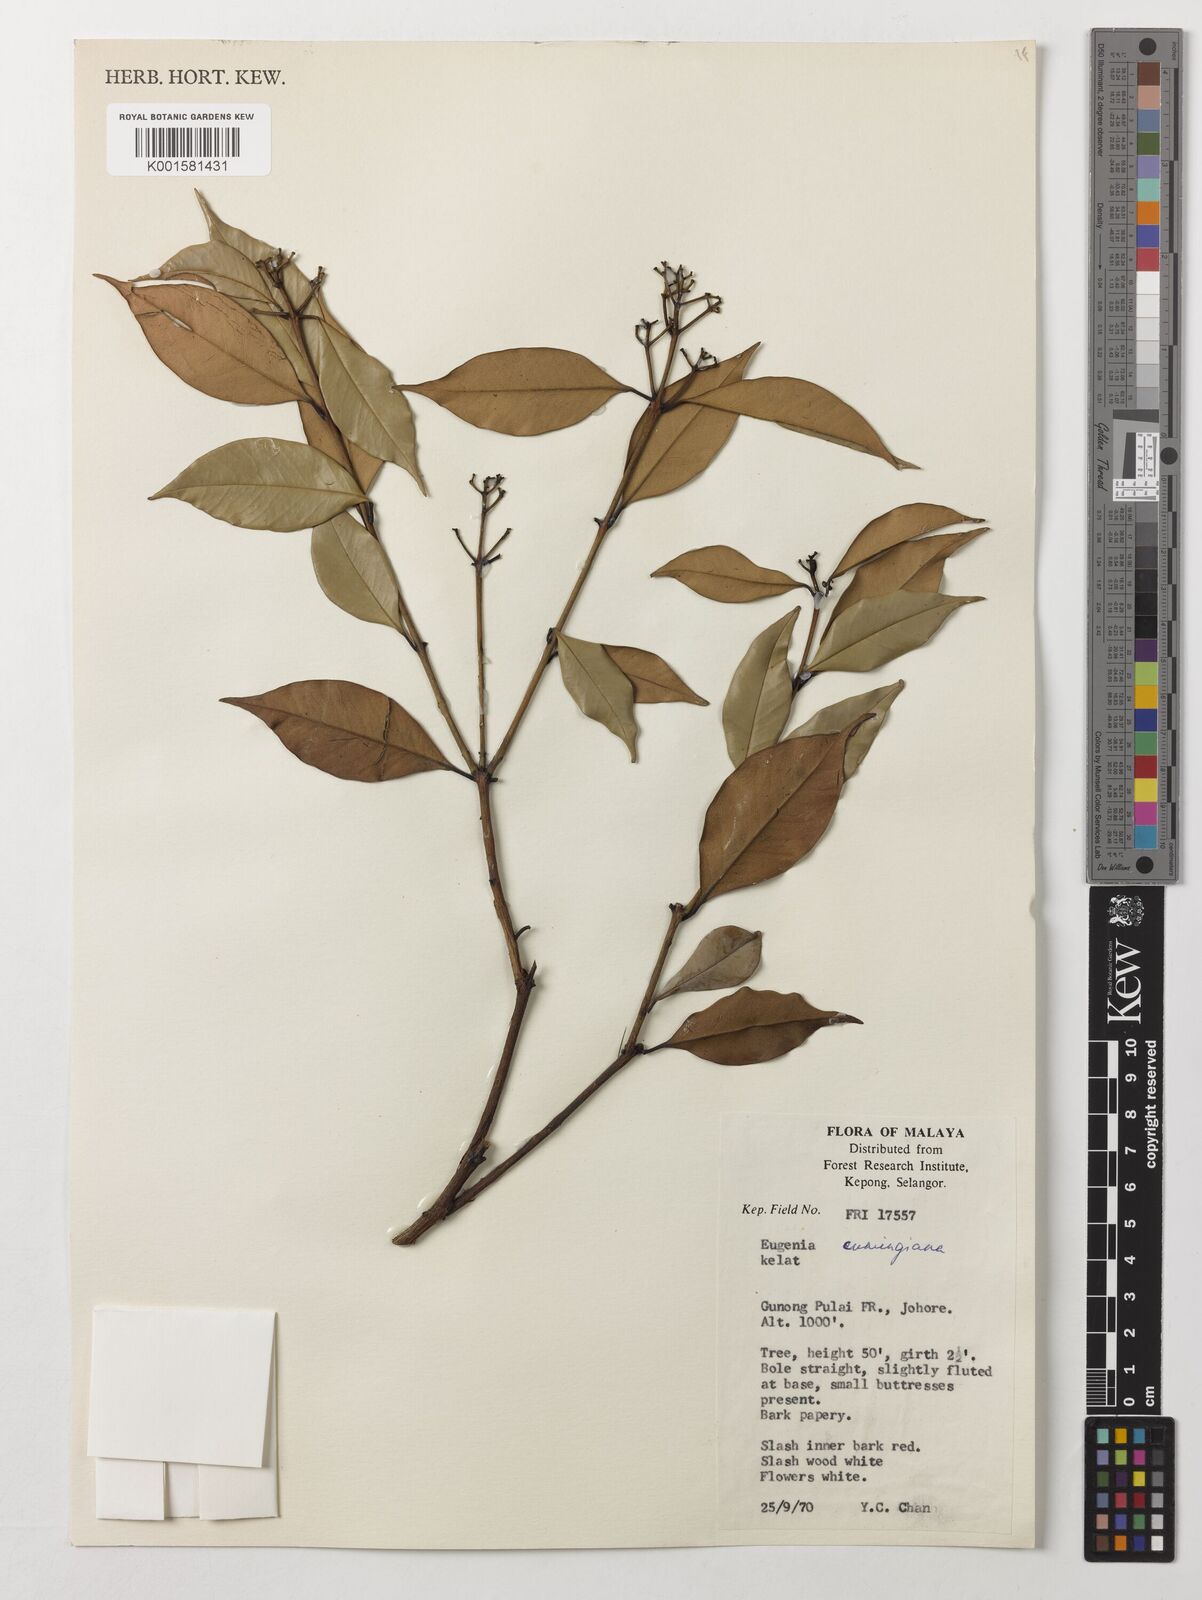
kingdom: Plantae
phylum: Tracheophyta
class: Magnoliopsida
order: Myrtales
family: Myrtaceae
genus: Syzygium
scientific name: Syzygium acuminatissimum
